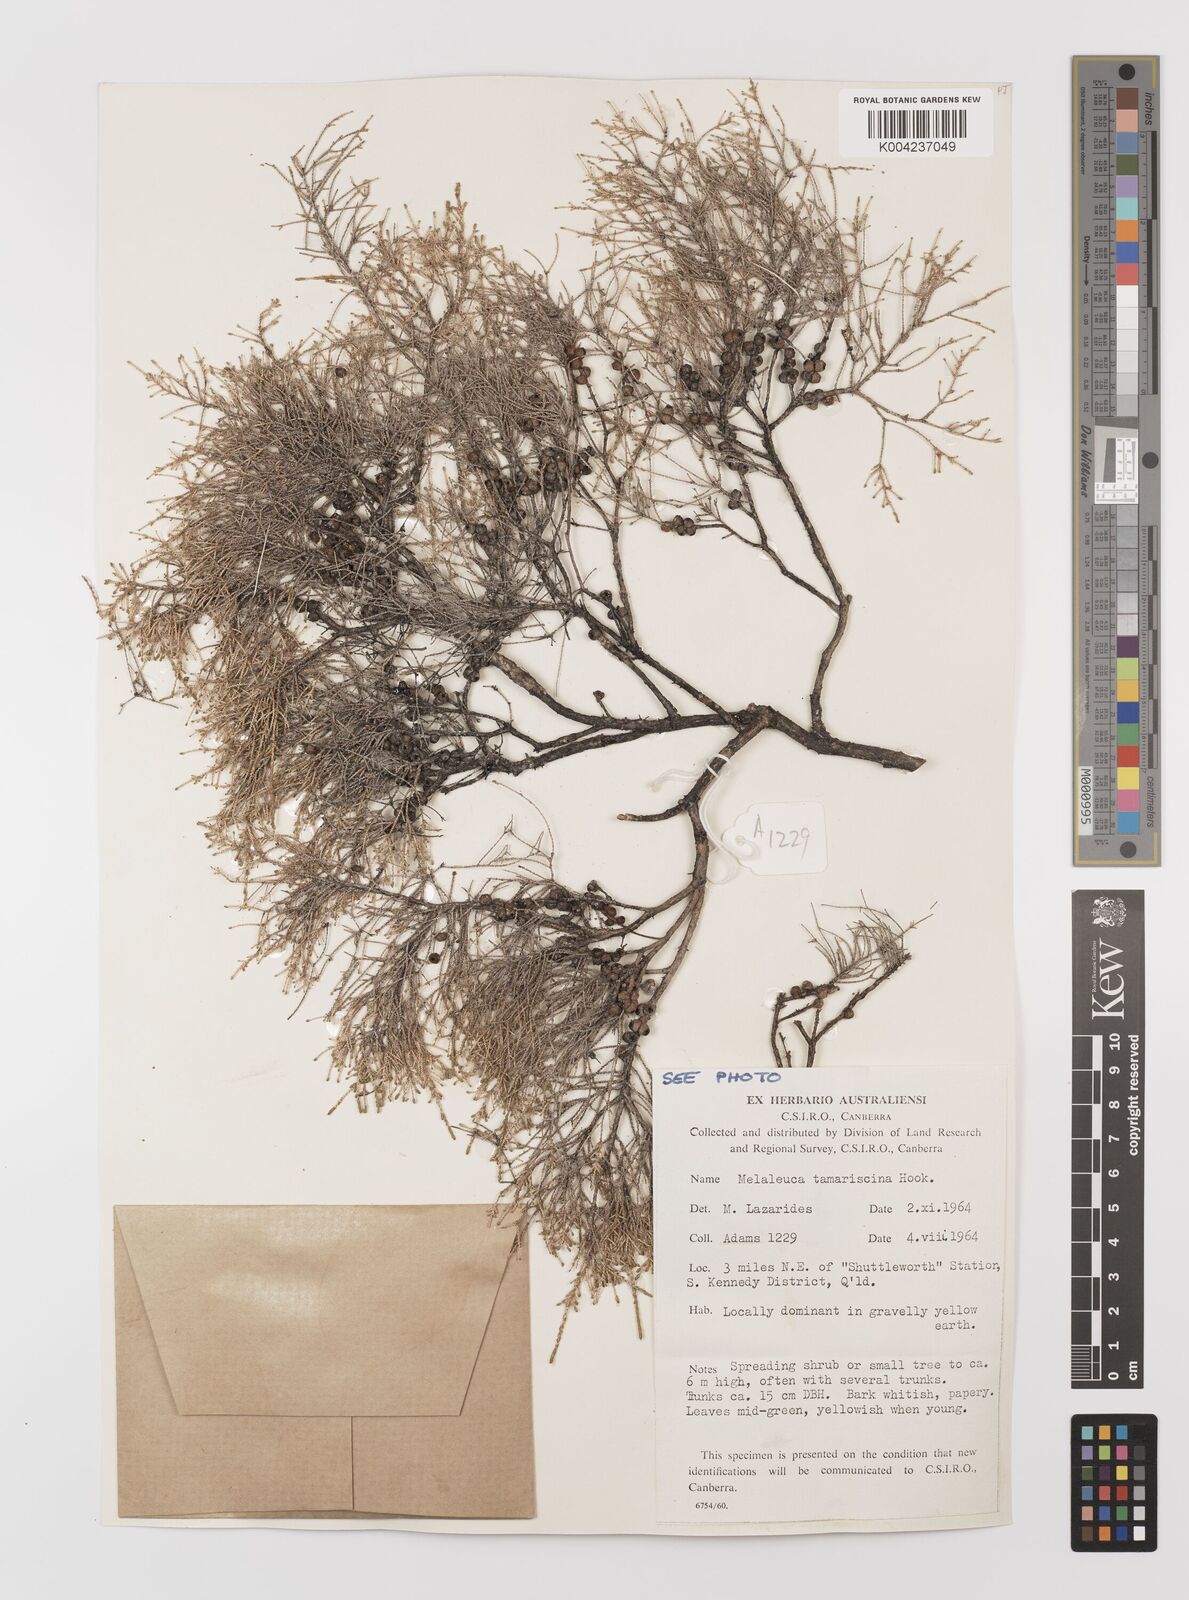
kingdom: Plantae
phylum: Tracheophyta
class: Magnoliopsida
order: Myrtales
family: Myrtaceae
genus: Melaleuca
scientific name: Melaleuca tamariscina
